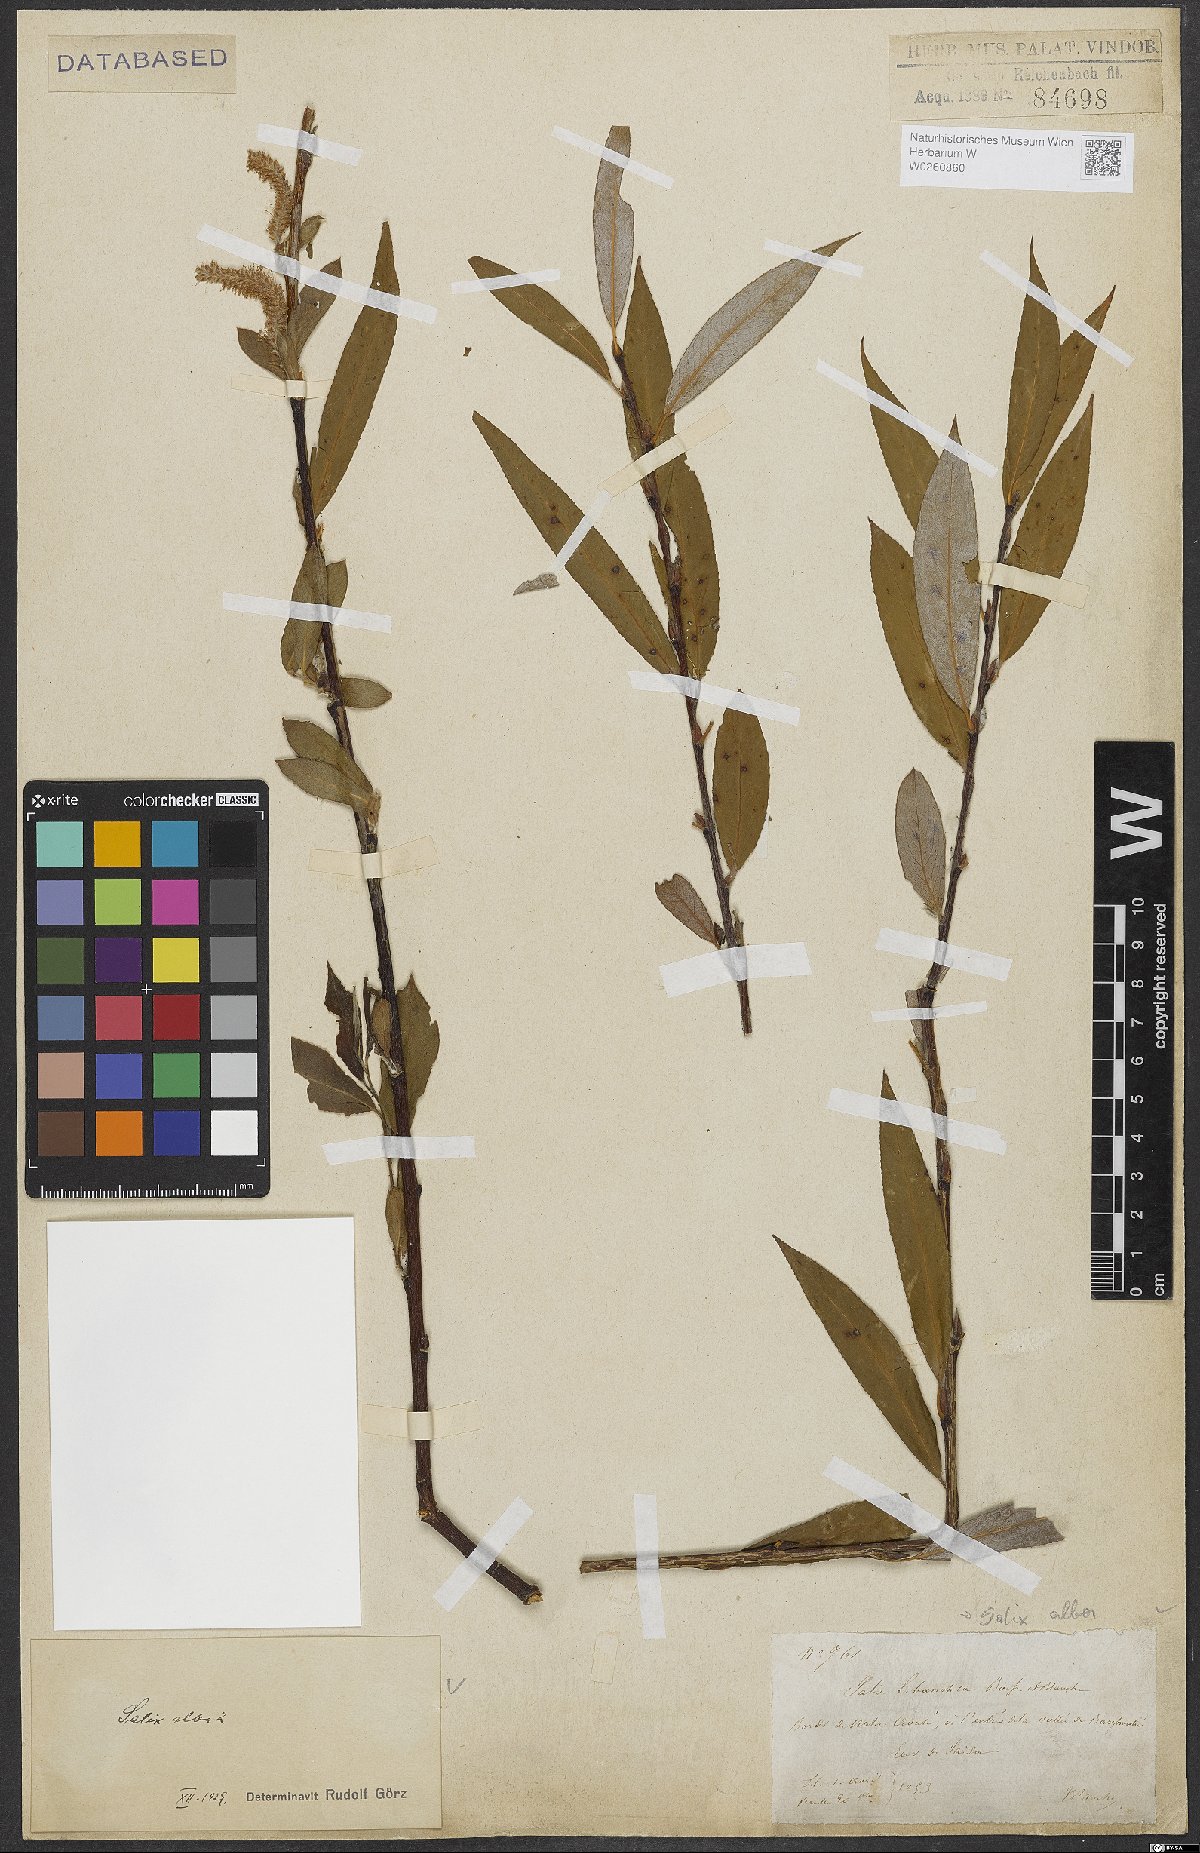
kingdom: Plantae
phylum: Tracheophyta
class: Magnoliopsida
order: Malpighiales
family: Salicaceae
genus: Salix
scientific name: Salix alba
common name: White willow
